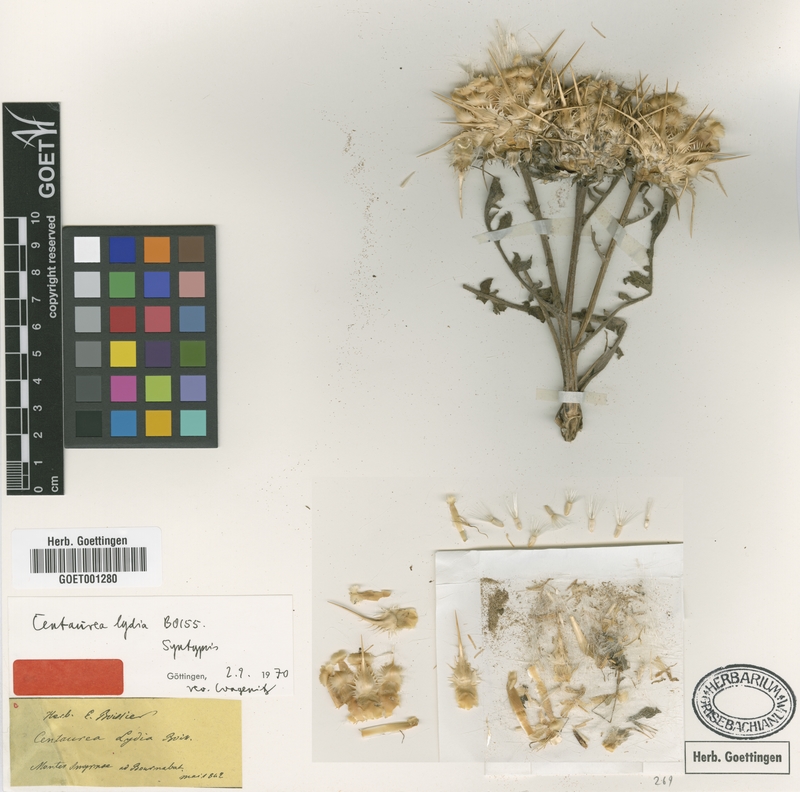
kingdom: Plantae
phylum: Tracheophyta
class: Magnoliopsida
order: Asterales
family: Asteraceae
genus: Centaurea
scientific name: Centaurea lydia
